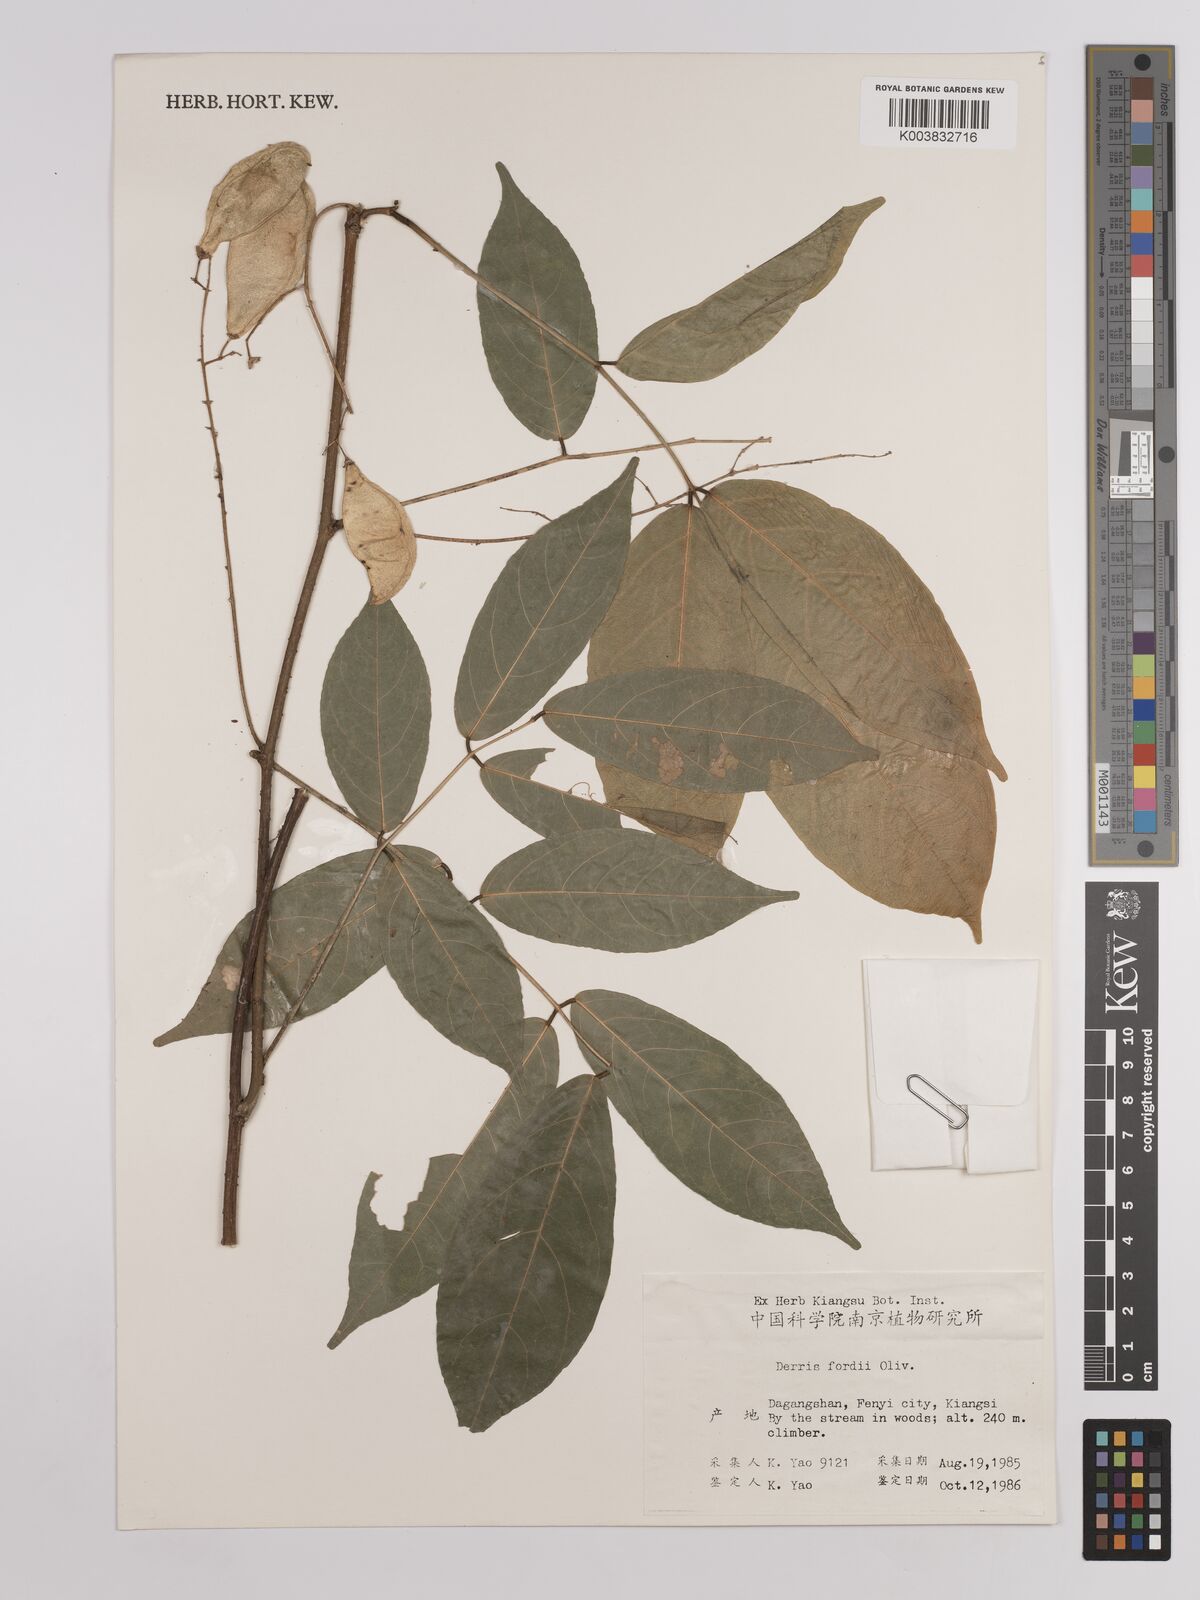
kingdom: Plantae
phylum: Tracheophyta
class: Magnoliopsida
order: Fabales
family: Fabaceae
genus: Derris
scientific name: Derris fordii
